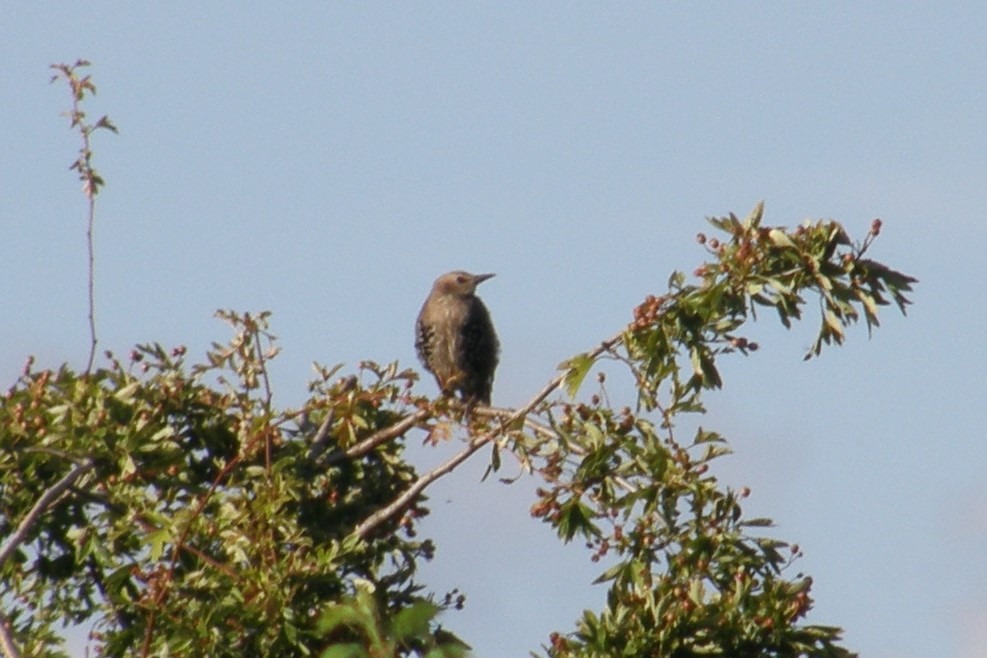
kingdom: Animalia
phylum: Chordata
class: Aves
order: Passeriformes
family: Sturnidae
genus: Sturnus
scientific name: Sturnus vulgaris
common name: Stær
